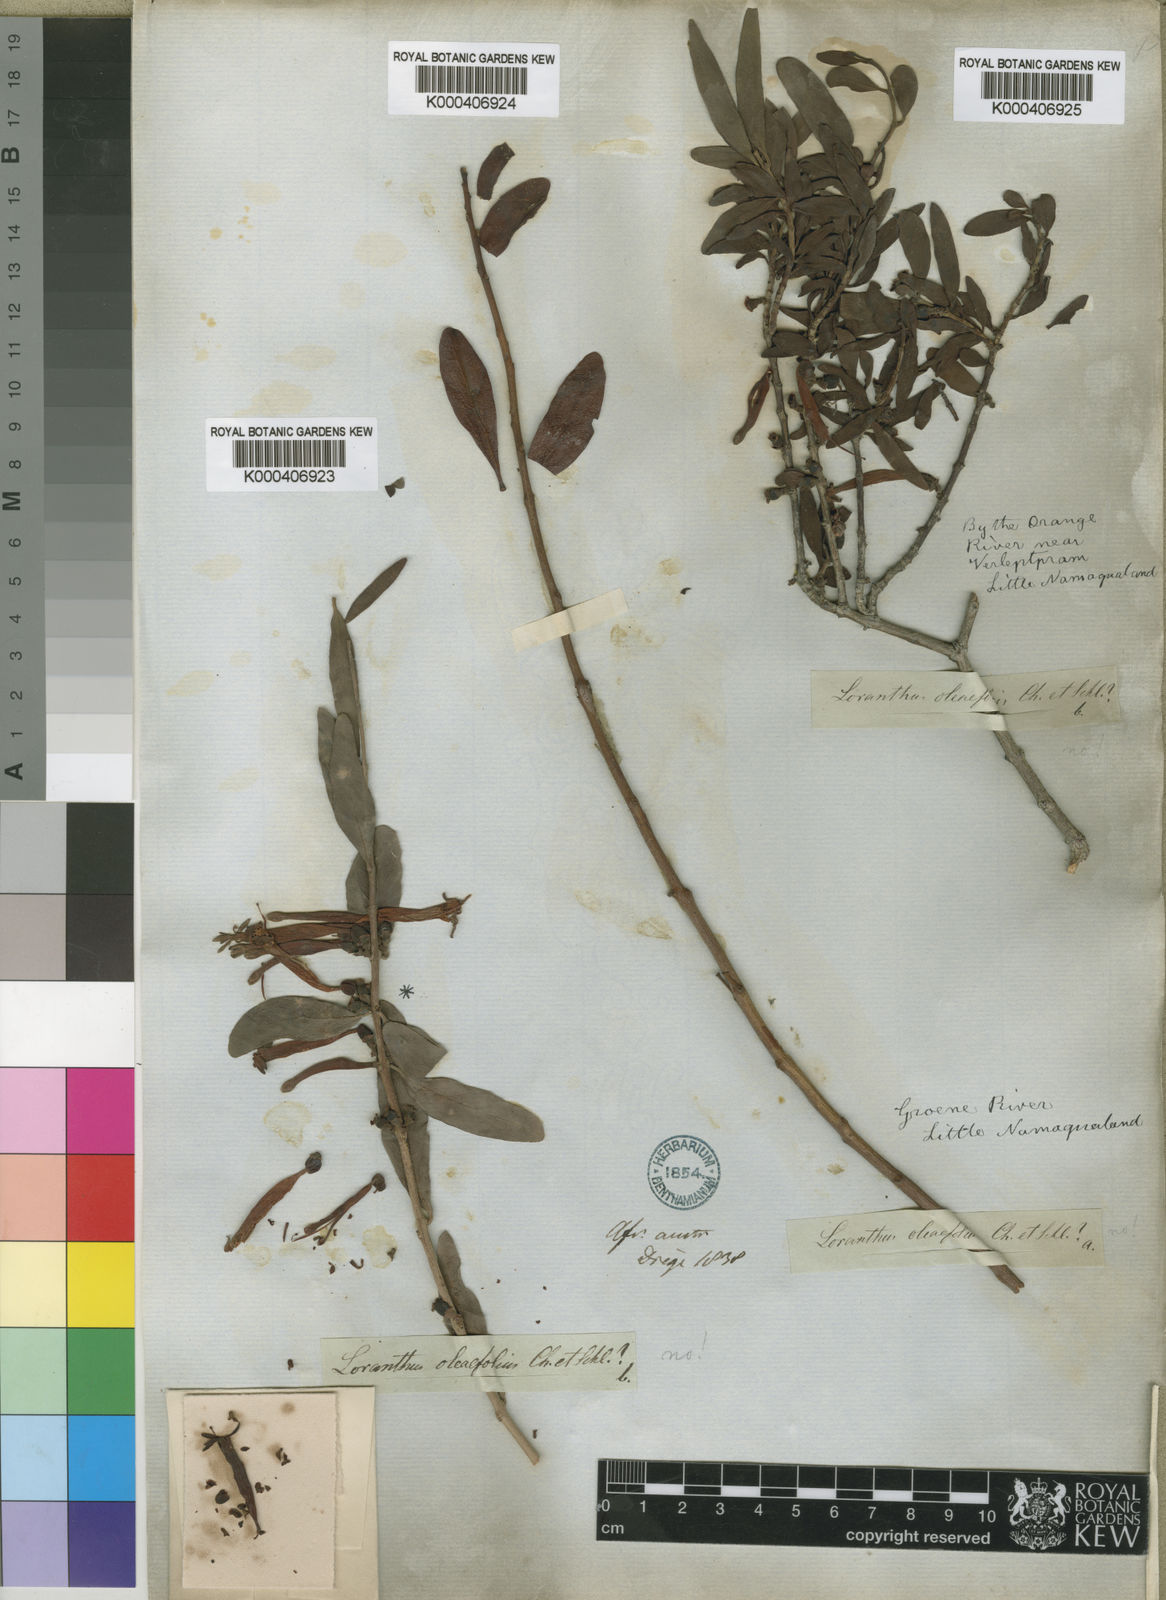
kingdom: Plantae
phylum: Tracheophyta
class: Magnoliopsida
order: Santalales
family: Loranthaceae
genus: Tapinanthus
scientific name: Tapinanthus oleifolius
